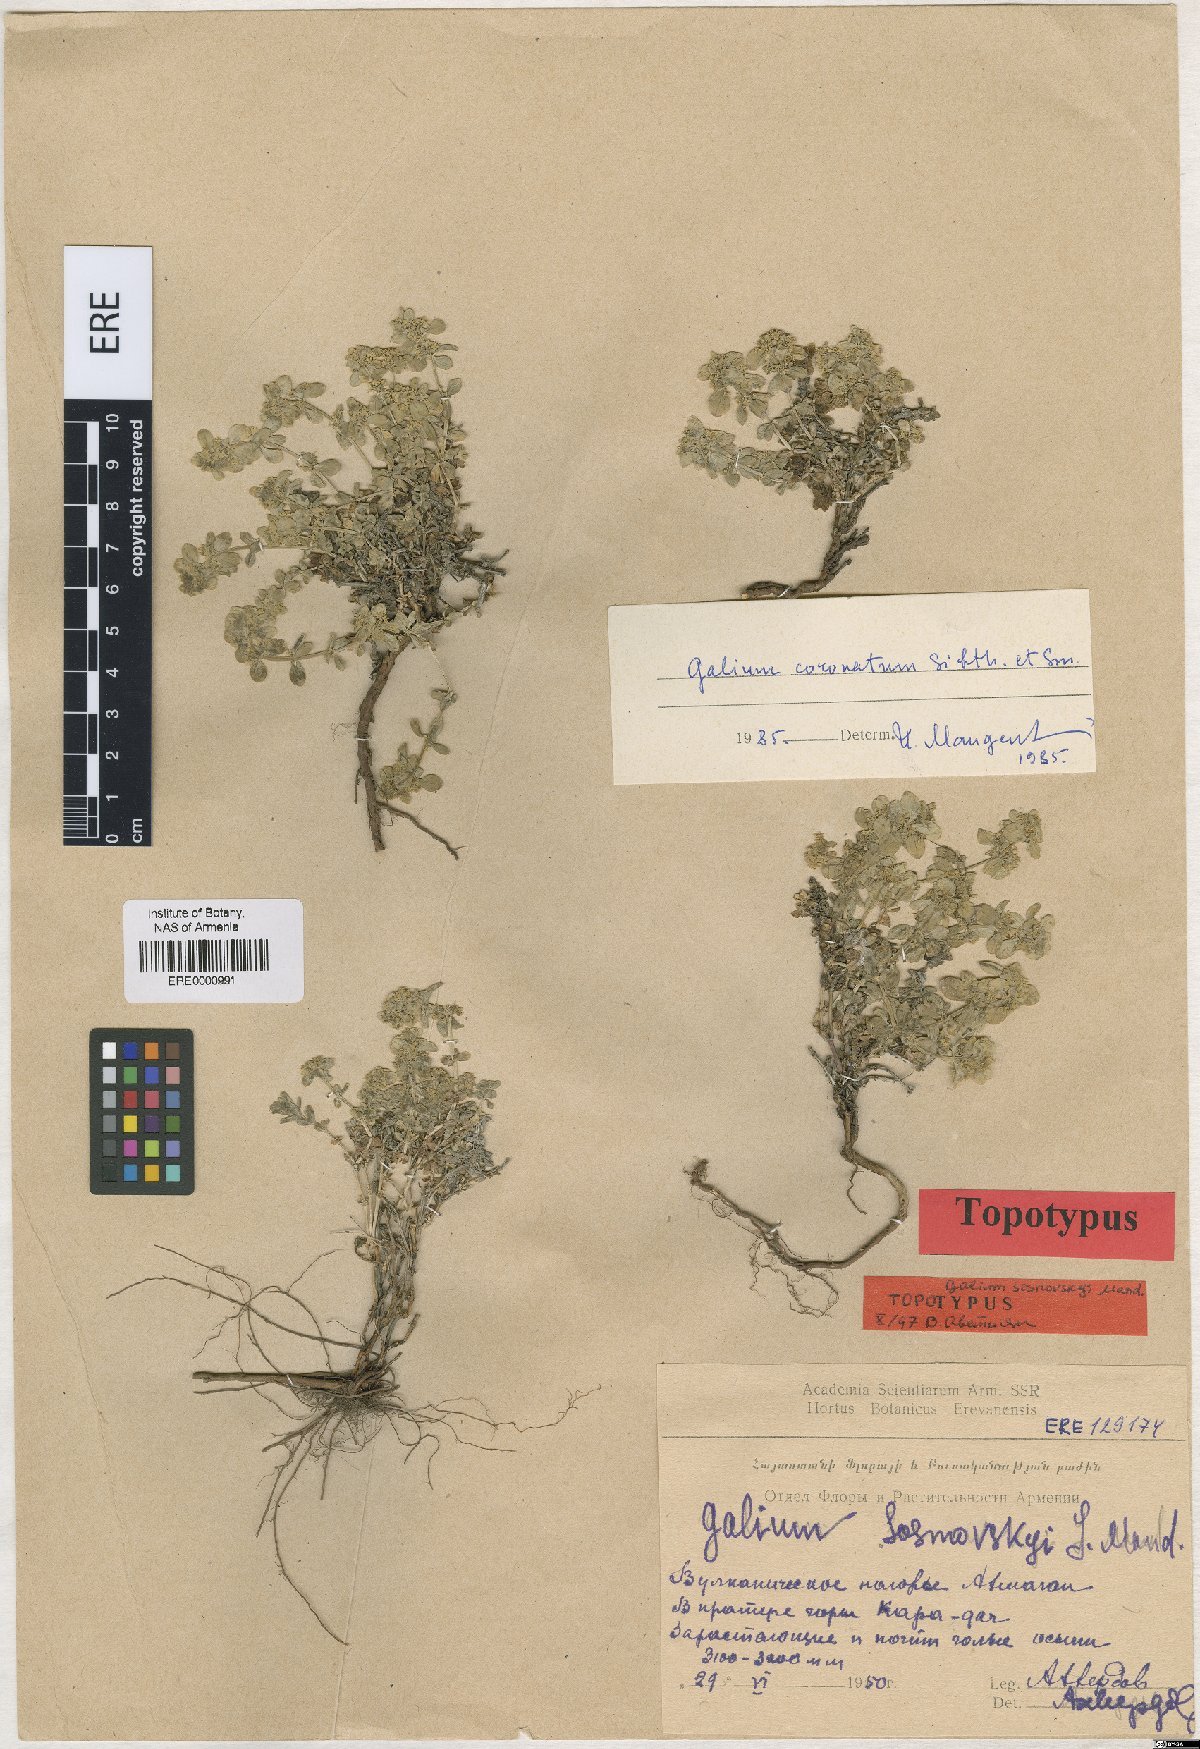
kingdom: Plantae
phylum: Tracheophyta
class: Magnoliopsida
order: Gentianales
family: Rubiaceae
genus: Cruciata
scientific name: Cruciata taurica
